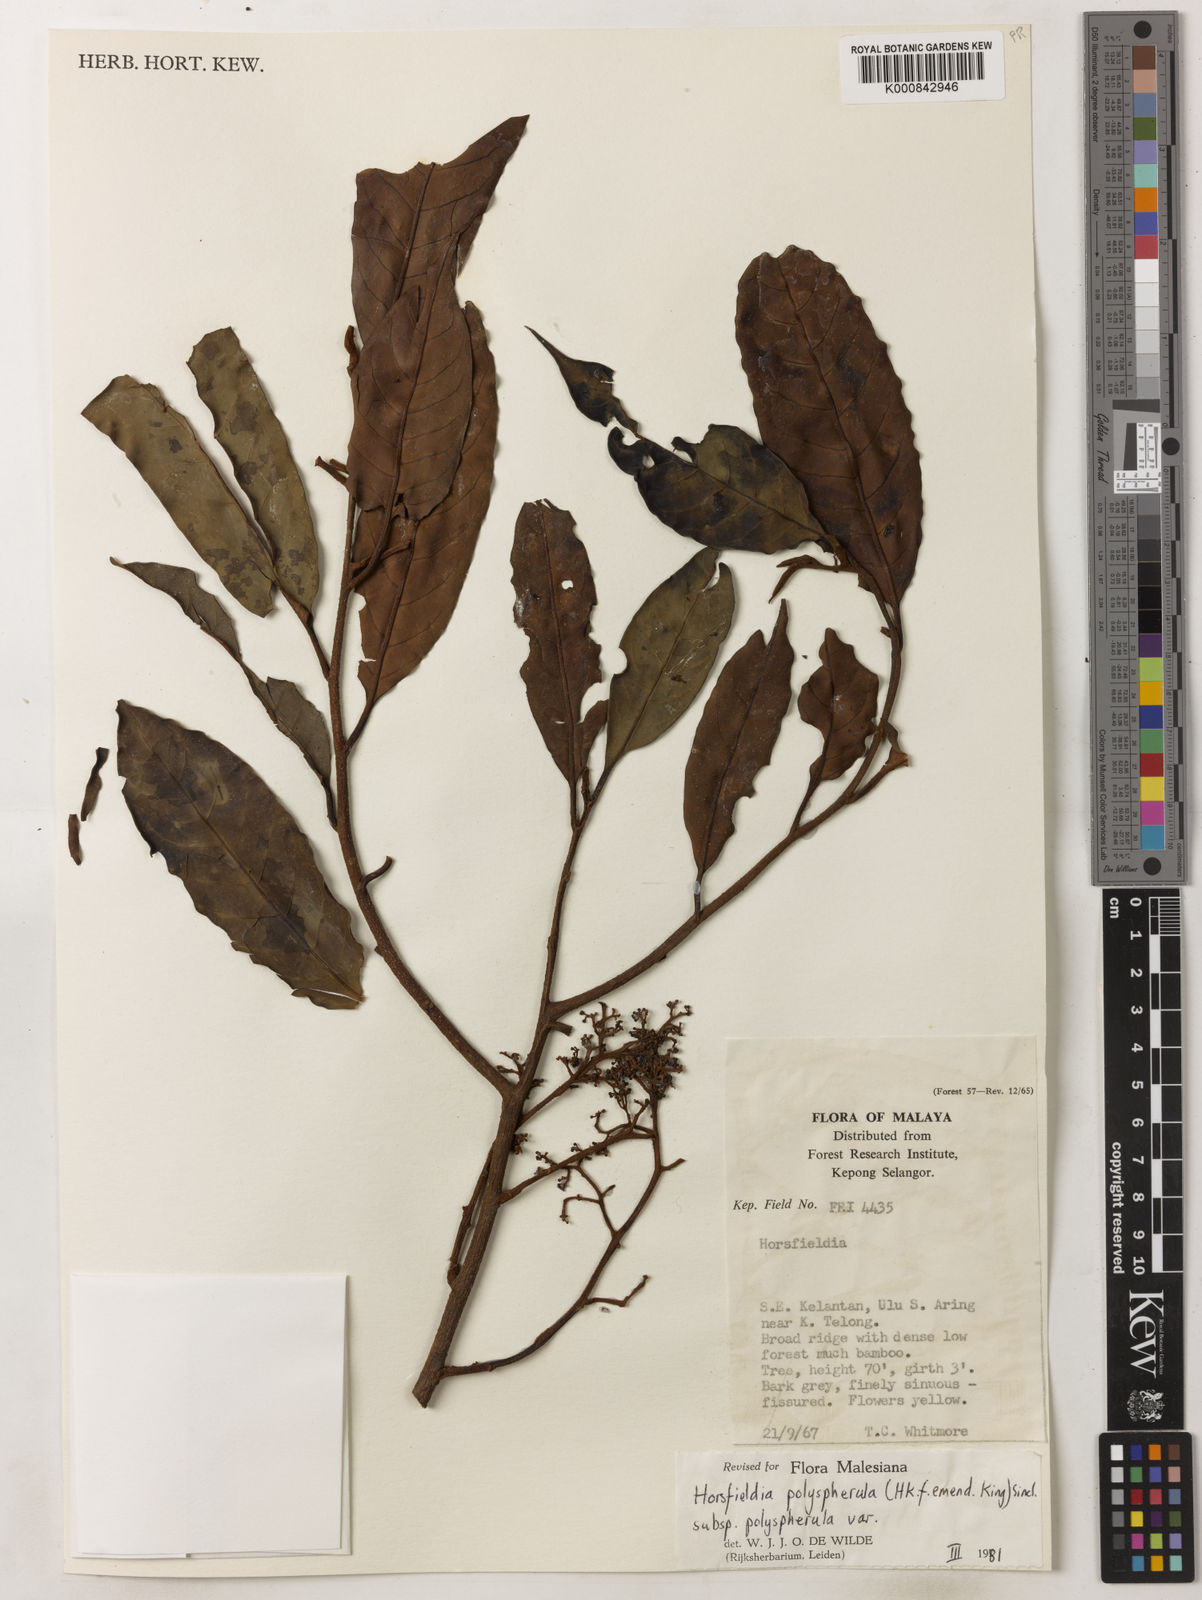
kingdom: Plantae
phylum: Tracheophyta
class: Magnoliopsida
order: Magnoliales
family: Myristicaceae
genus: Horsfieldia
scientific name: Horsfieldia
